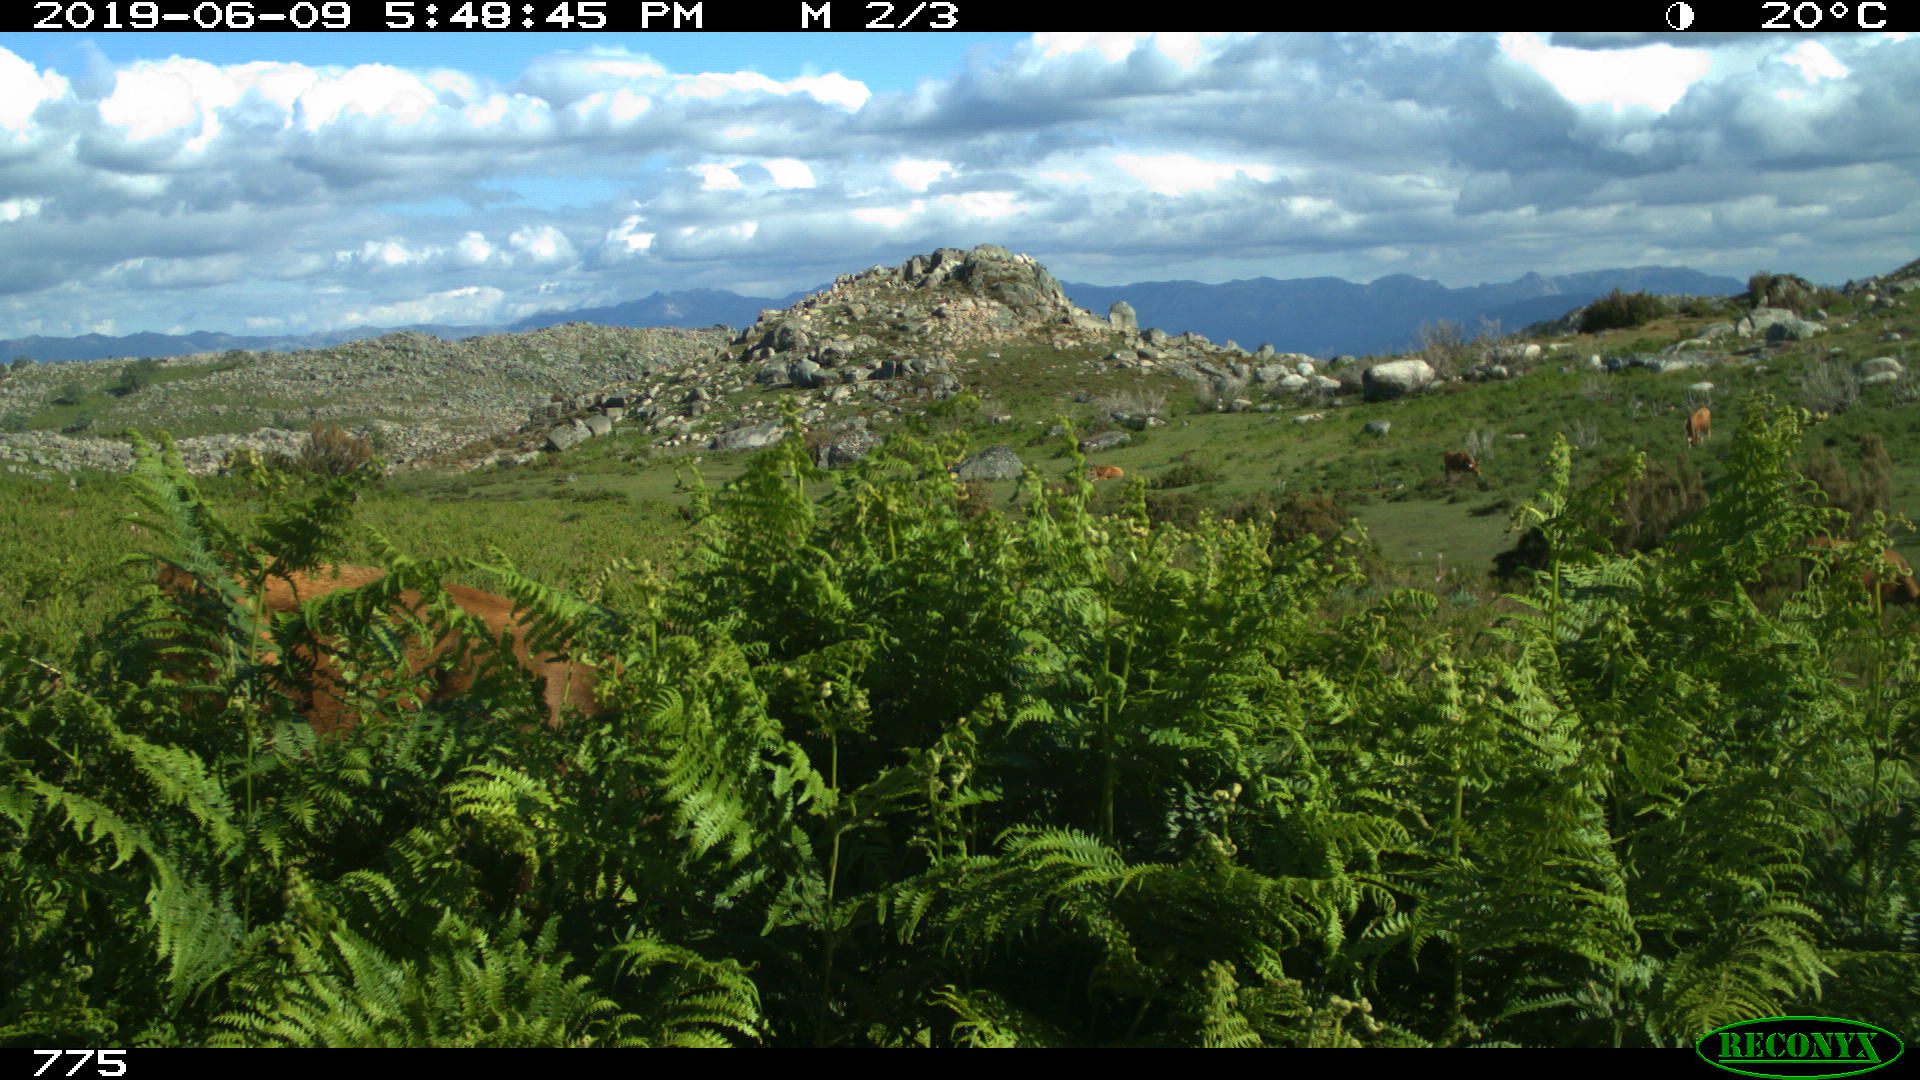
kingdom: Animalia
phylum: Chordata
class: Mammalia
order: Artiodactyla
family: Bovidae
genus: Bos
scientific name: Bos taurus
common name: Domesticated cattle
